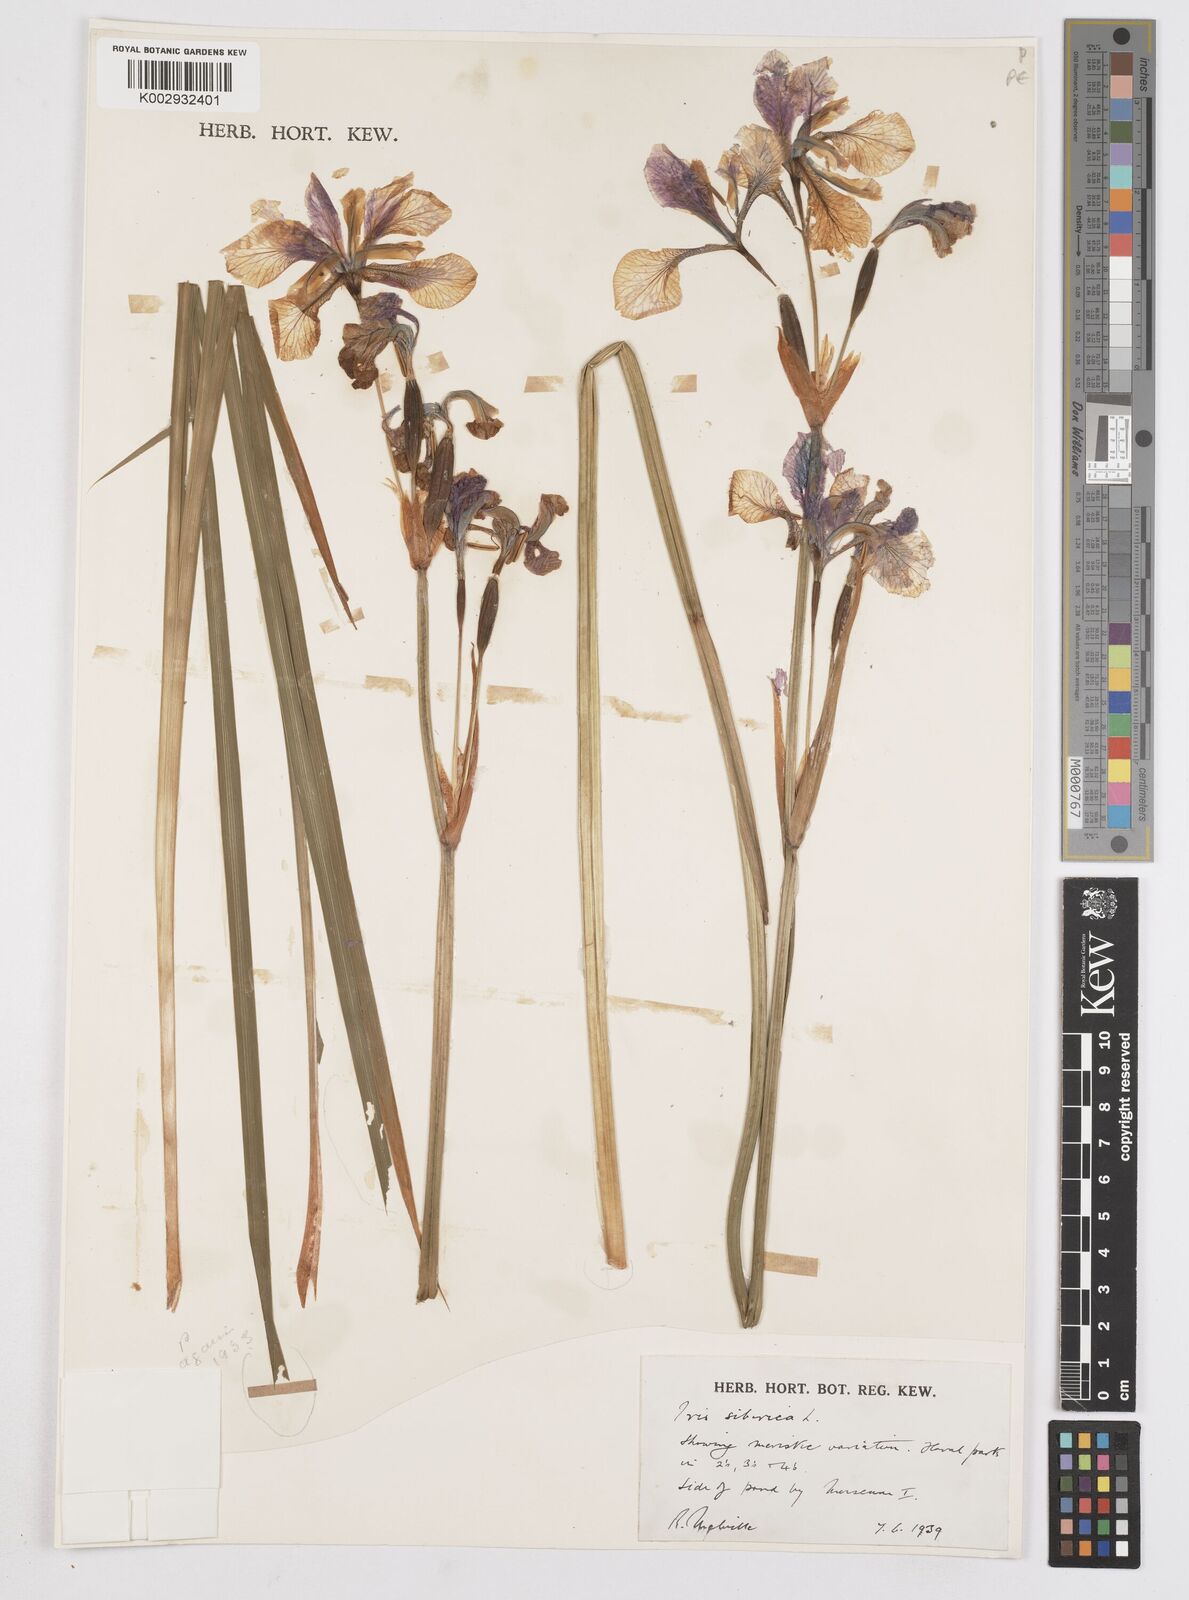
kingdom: Plantae
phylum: Tracheophyta
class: Liliopsida
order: Asparagales
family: Iridaceae
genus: Iris
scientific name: Iris sibirica
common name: Siberian iris
